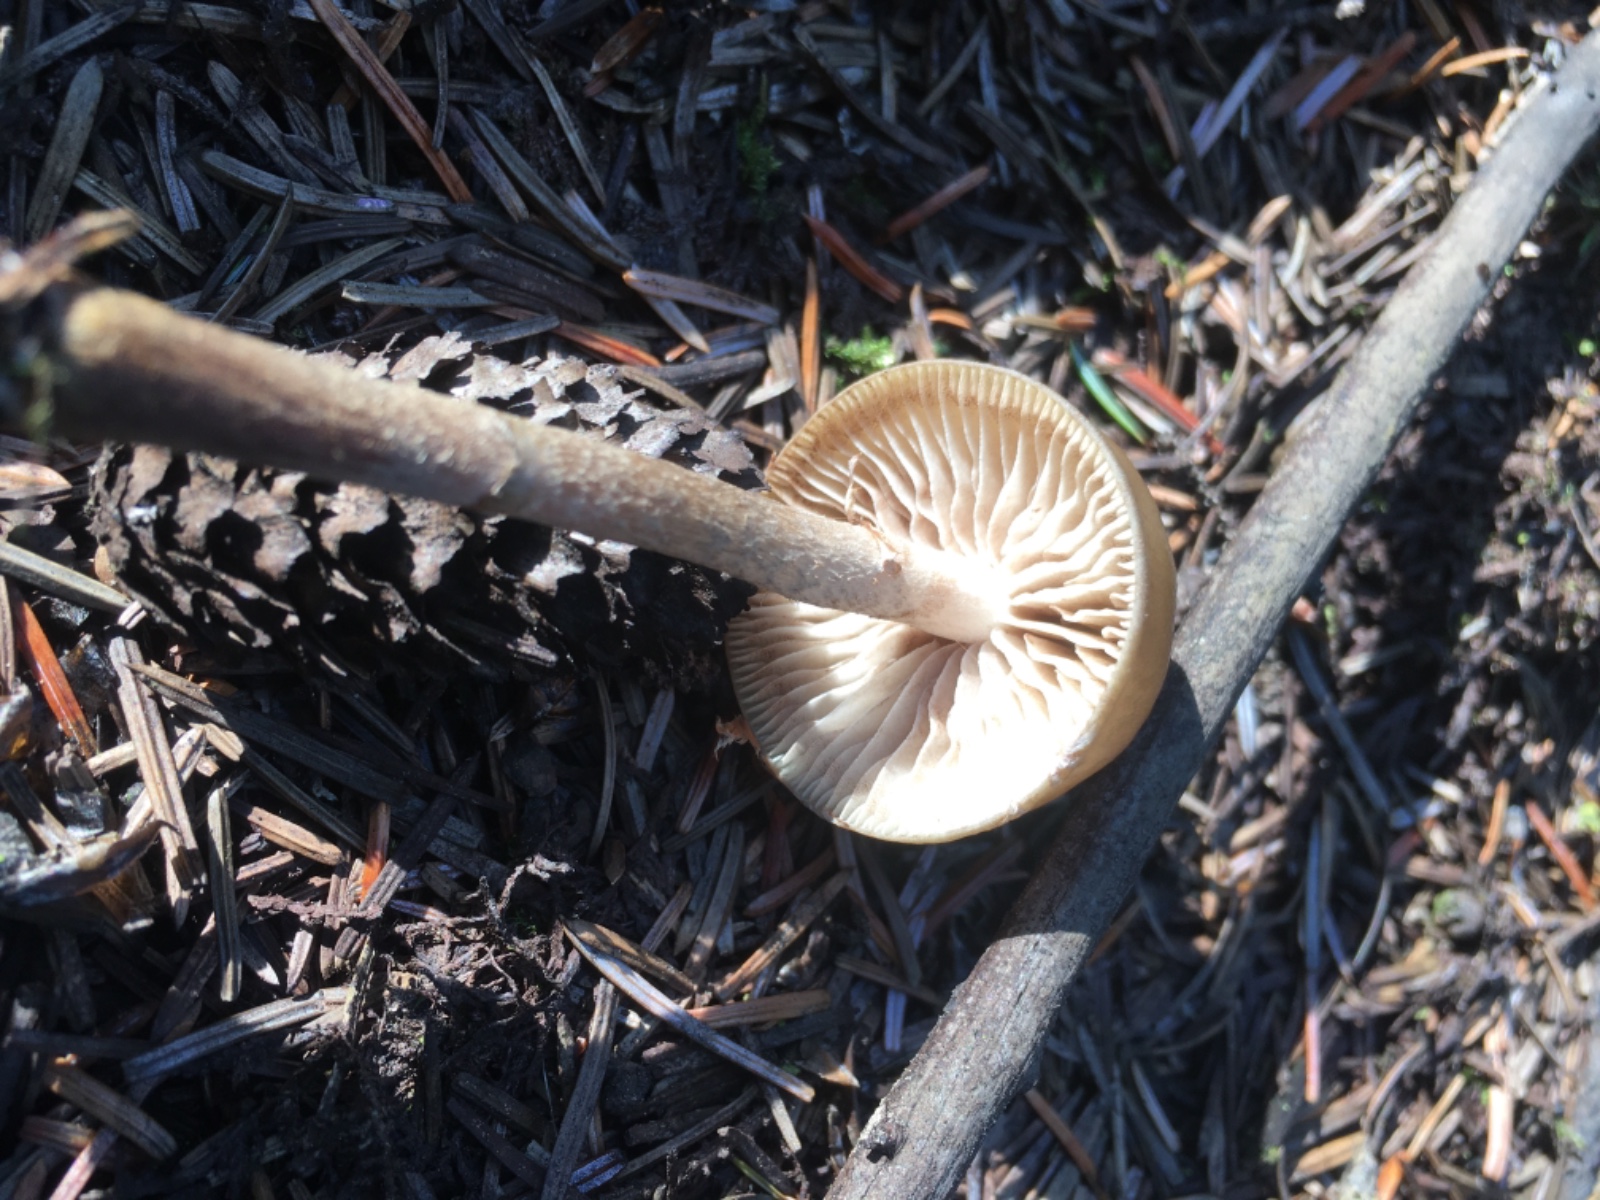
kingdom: Fungi
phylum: Basidiomycota
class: Agaricomycetes
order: Agaricales
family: Strophariaceae
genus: Hypholoma
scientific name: Hypholoma myosotis
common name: slimet svovlhat
